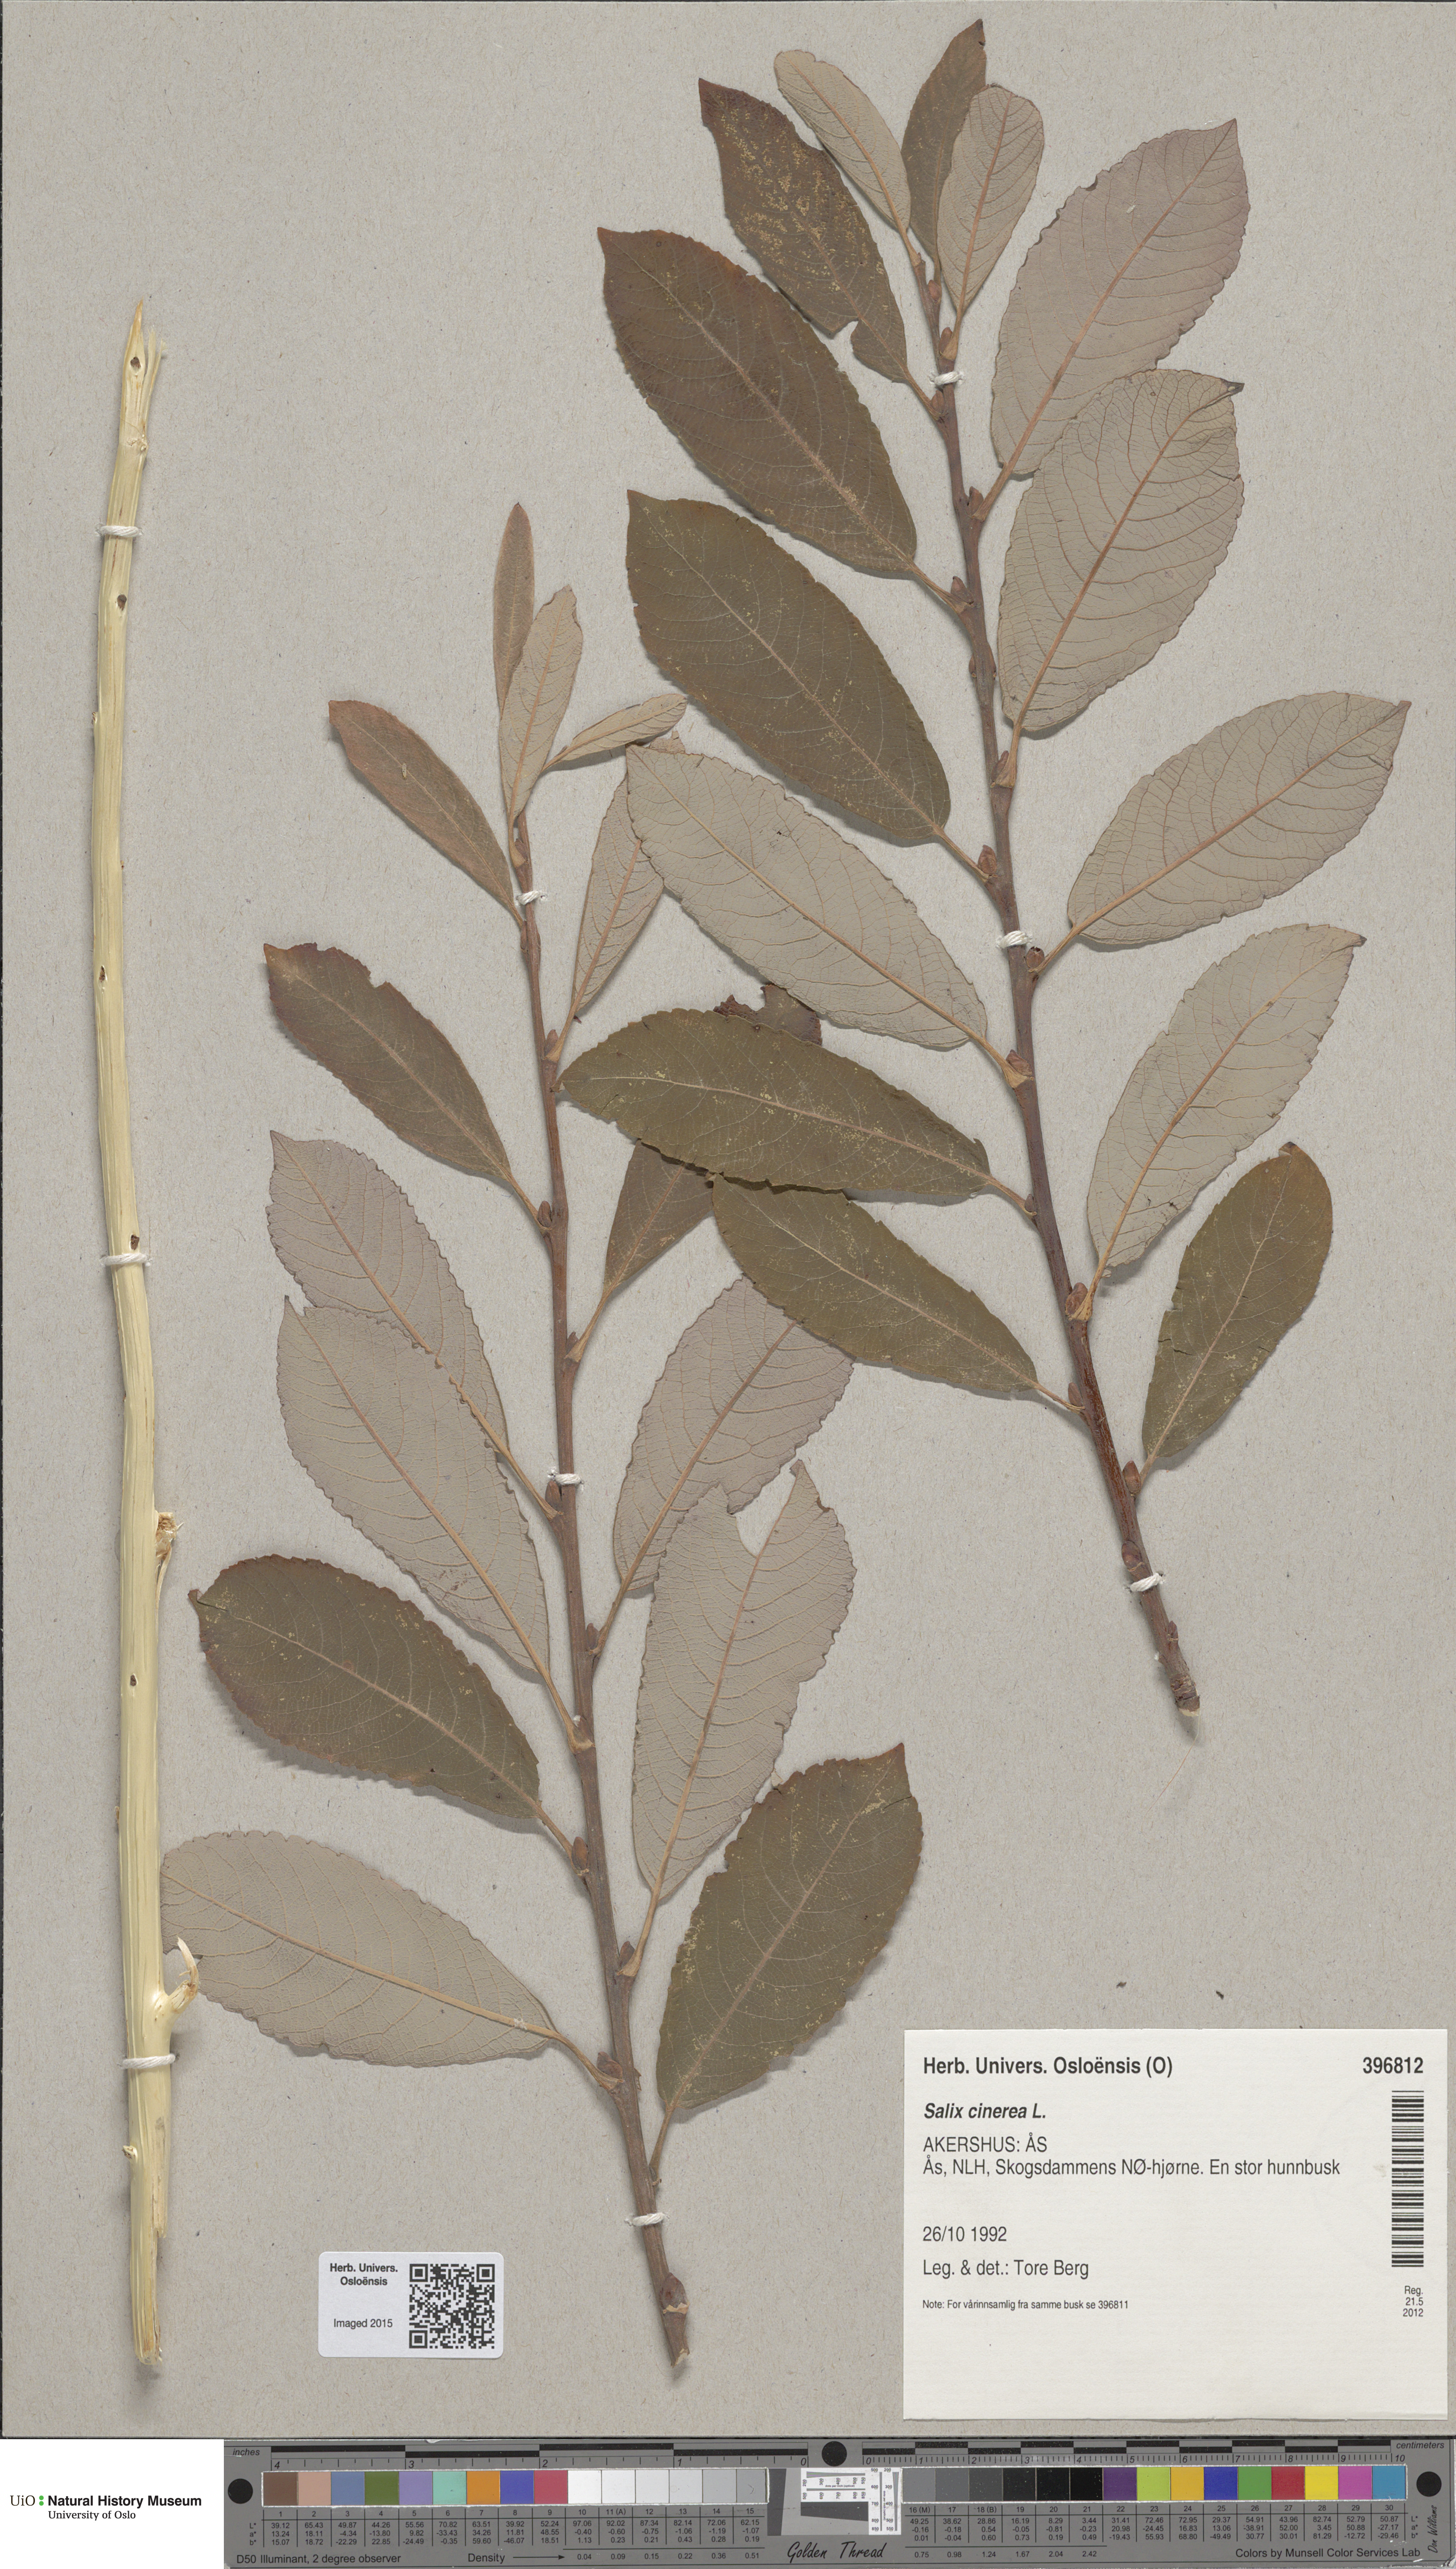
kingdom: Plantae
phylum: Tracheophyta
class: Magnoliopsida
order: Malpighiales
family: Salicaceae
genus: Salix
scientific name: Salix cinerea
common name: Common sallow
